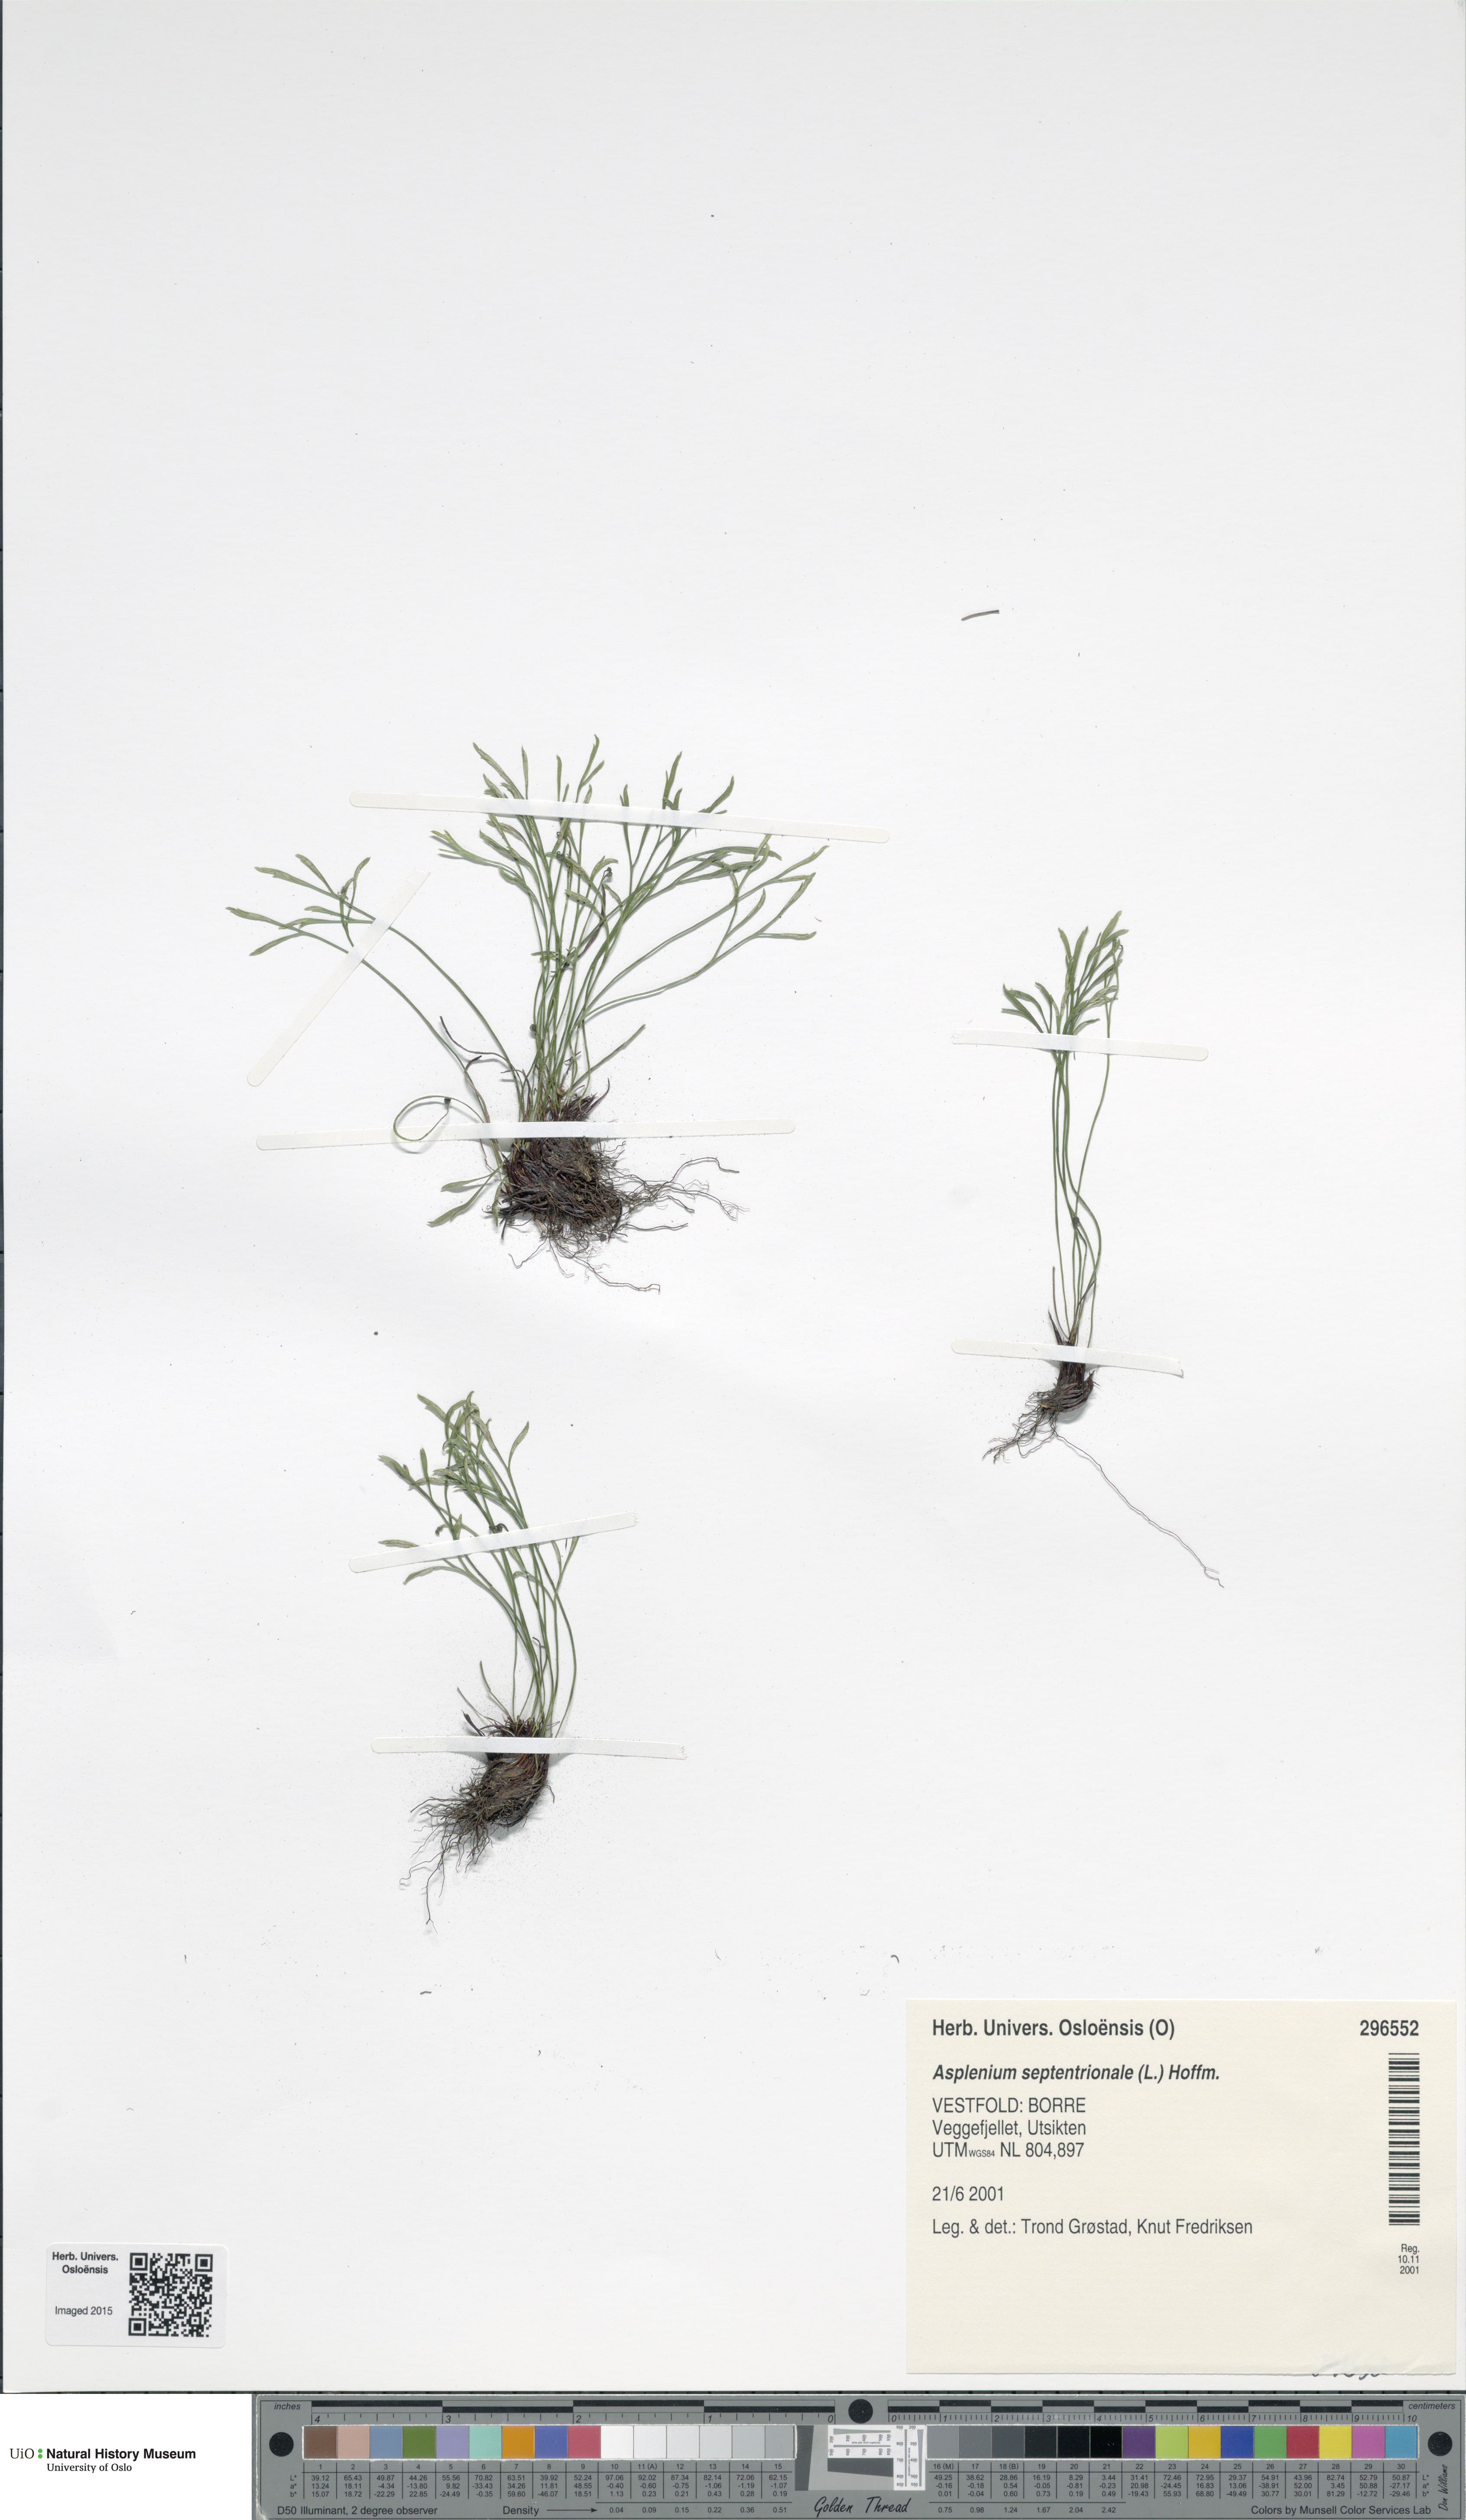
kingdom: Plantae
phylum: Tracheophyta
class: Polypodiopsida
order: Polypodiales
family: Aspleniaceae
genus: Asplenium
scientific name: Asplenium septentrionale
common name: Forked spleenwort
